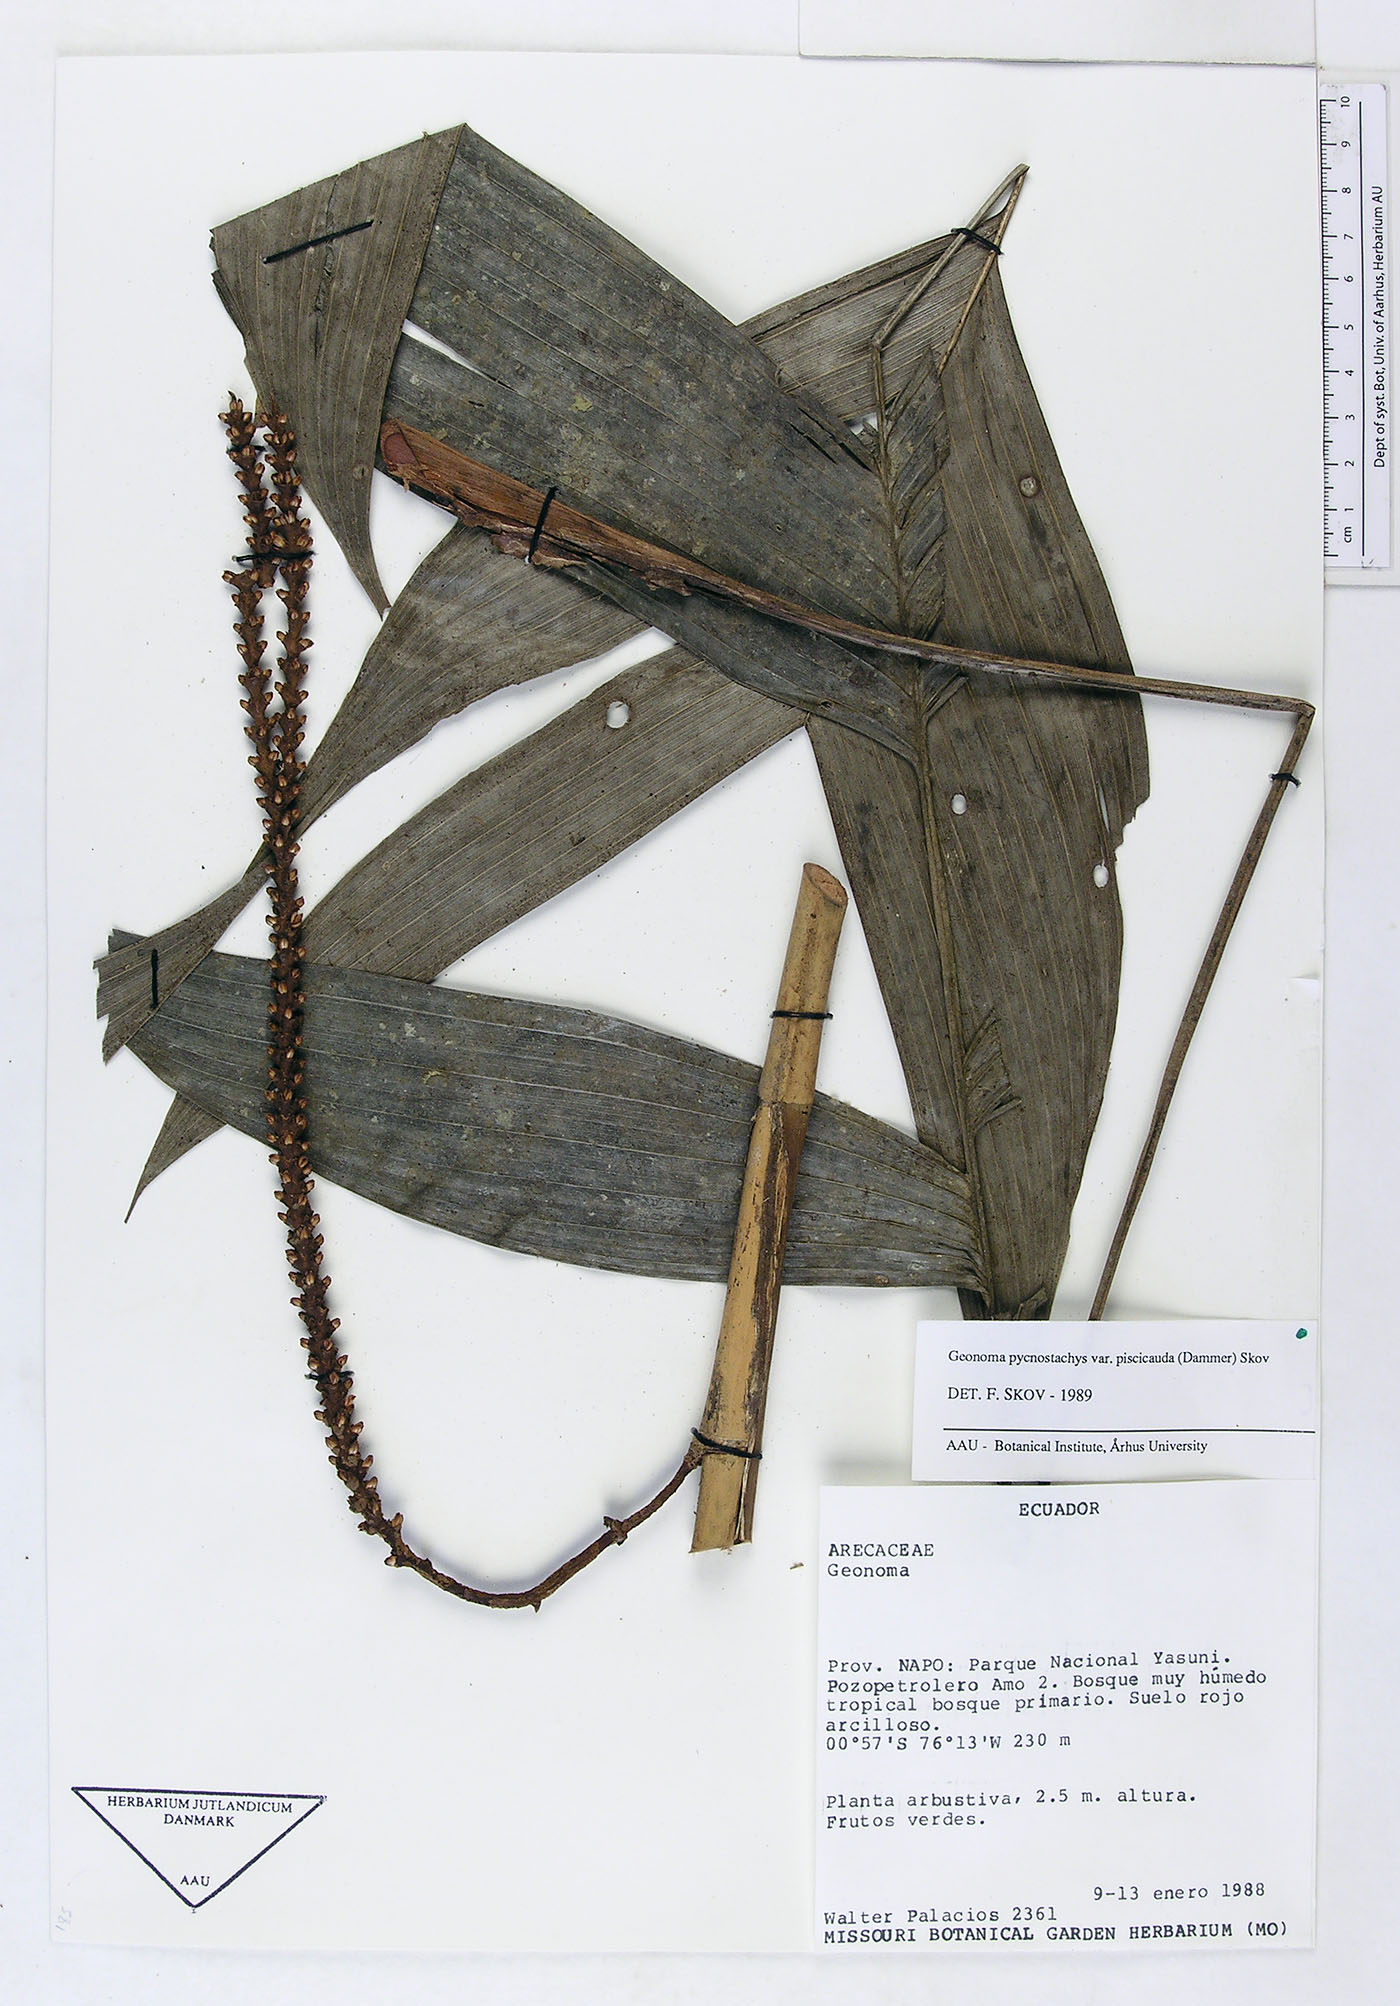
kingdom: Plantae
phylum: Tracheophyta
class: Liliopsida
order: Arecales
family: Arecaceae
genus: Geonoma
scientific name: Geonoma stricta
